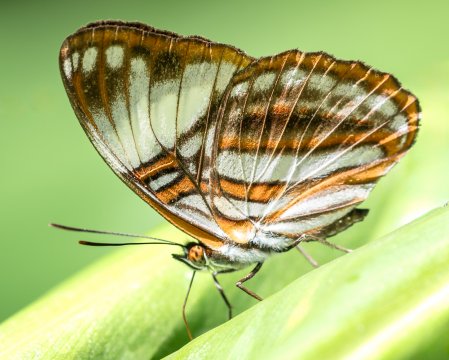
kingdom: Animalia
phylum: Arthropoda
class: Insecta
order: Lepidoptera
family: Nymphalidae
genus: Limenitis
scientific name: Limenitis epione
